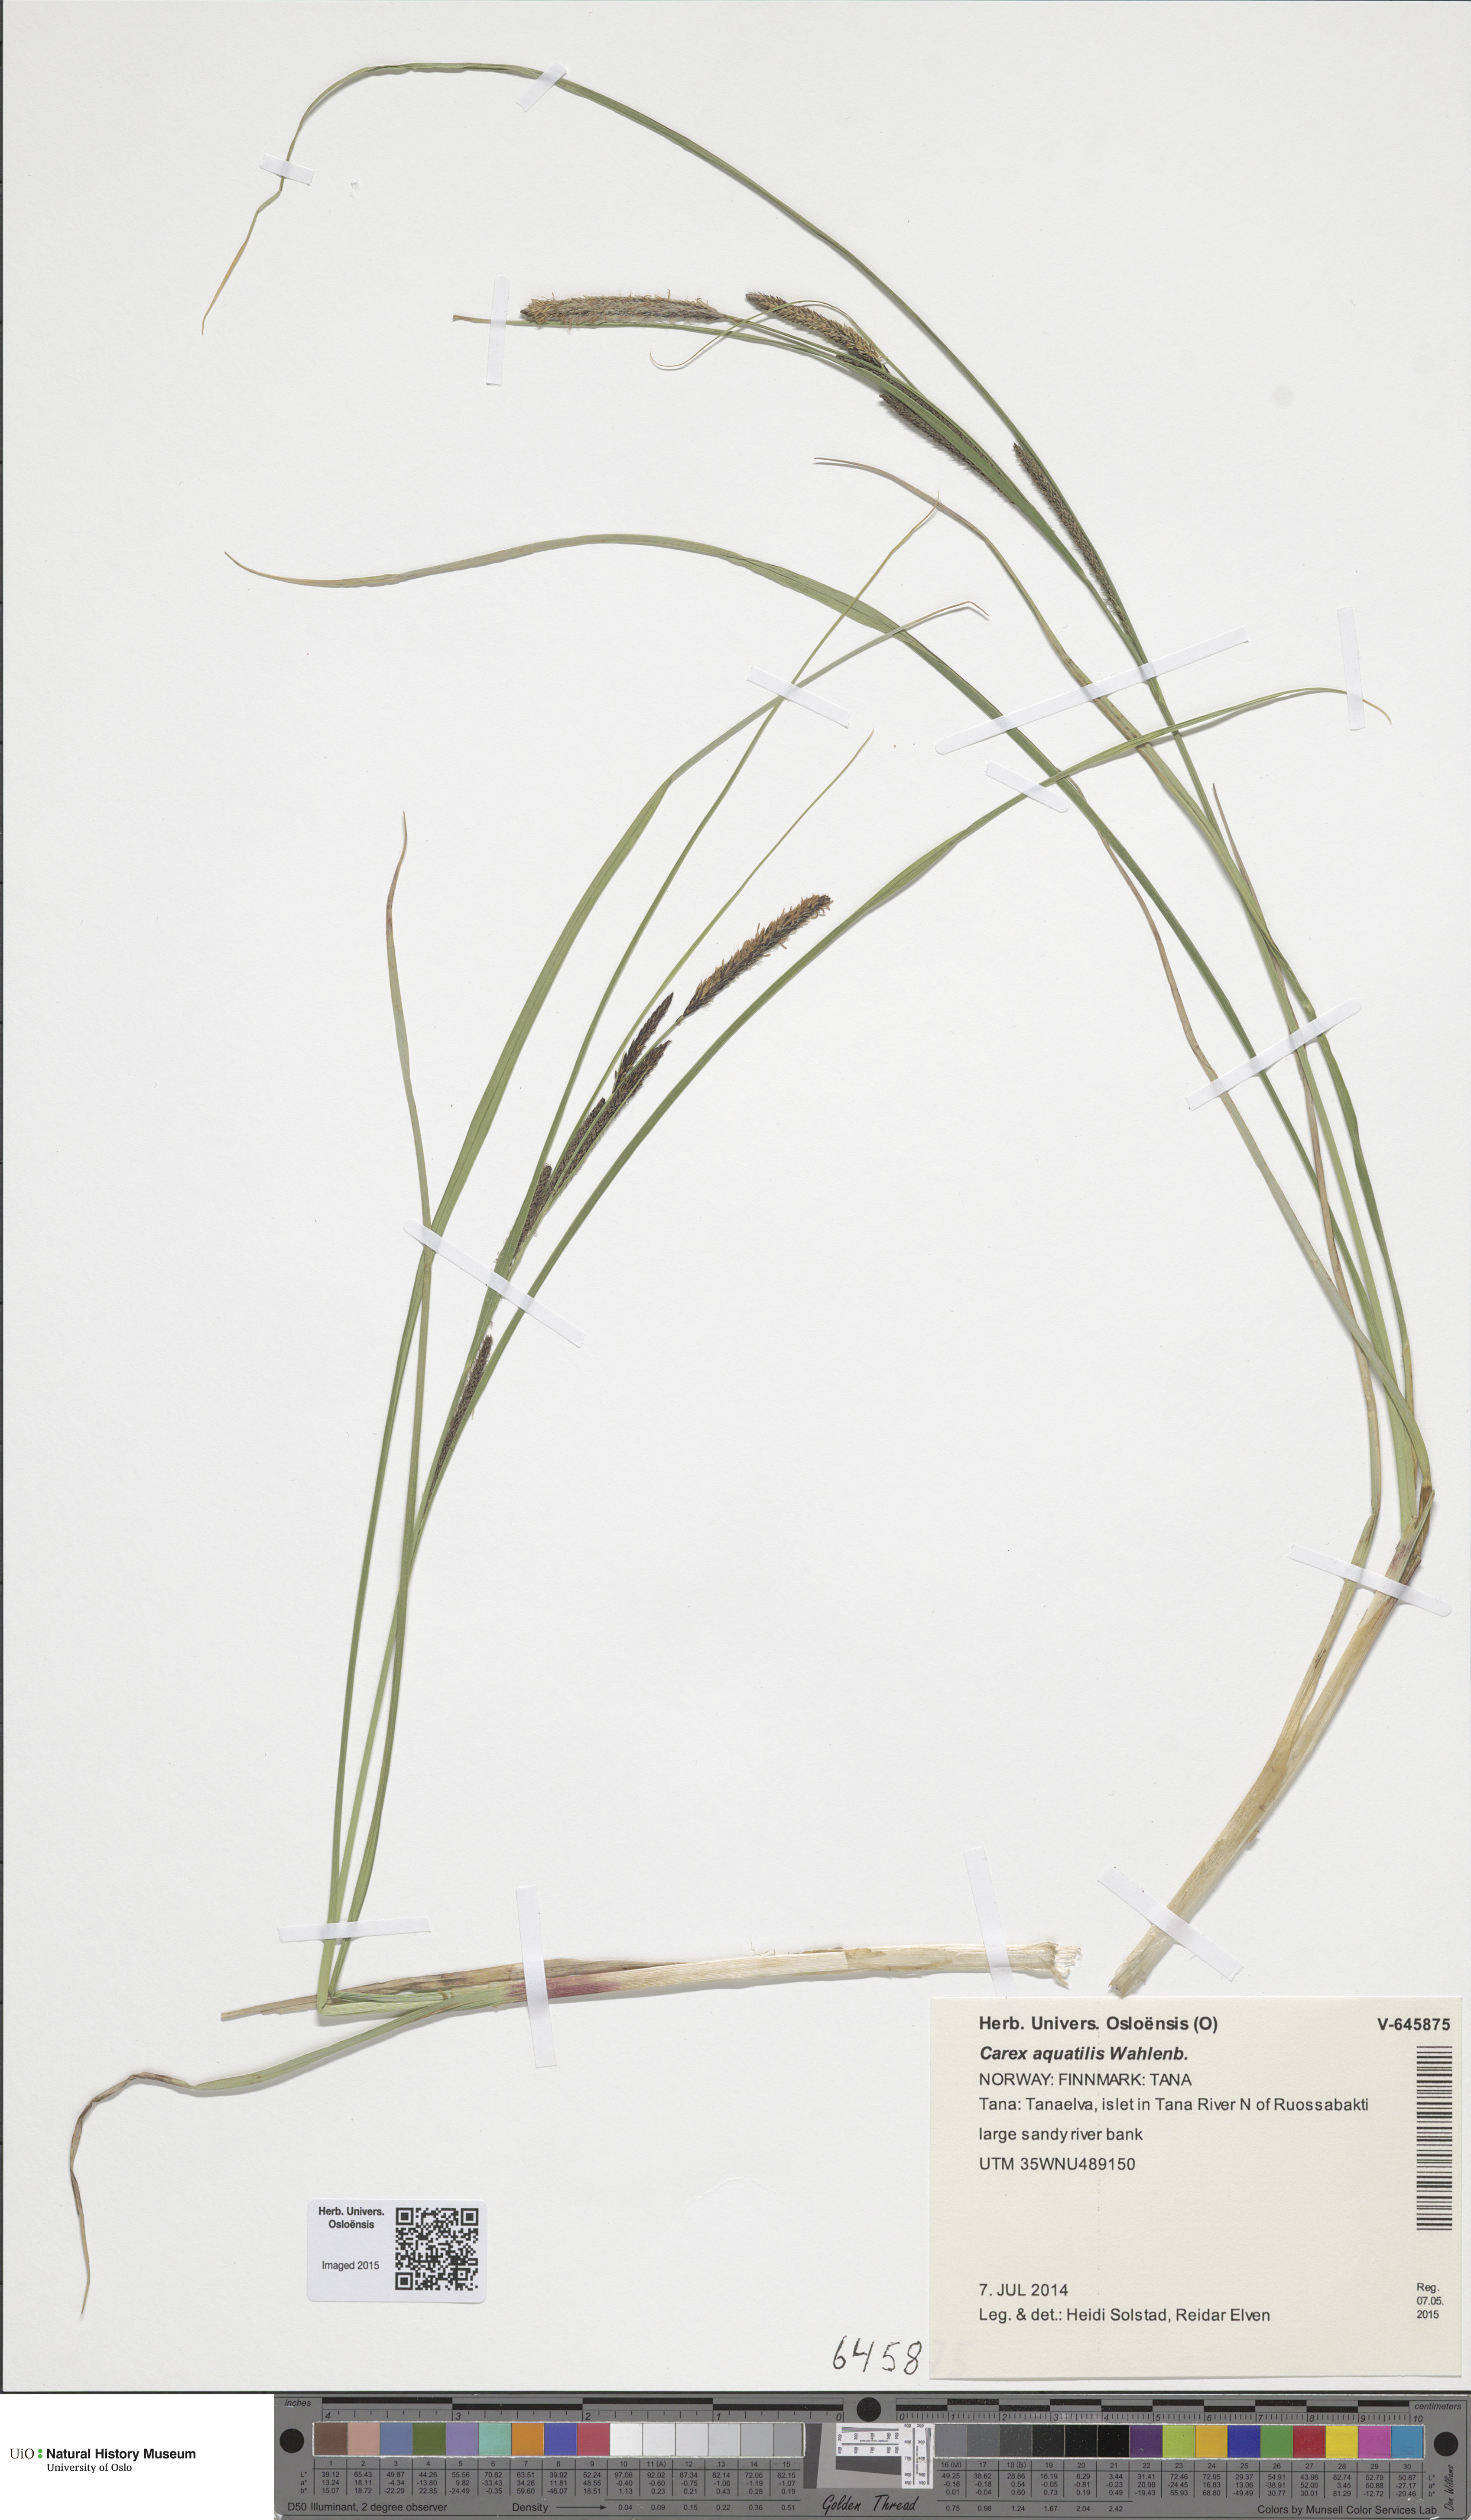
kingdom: Plantae
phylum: Tracheophyta
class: Liliopsida
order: Poales
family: Cyperaceae
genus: Carex
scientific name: Carex aquatilis
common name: Water sedge
